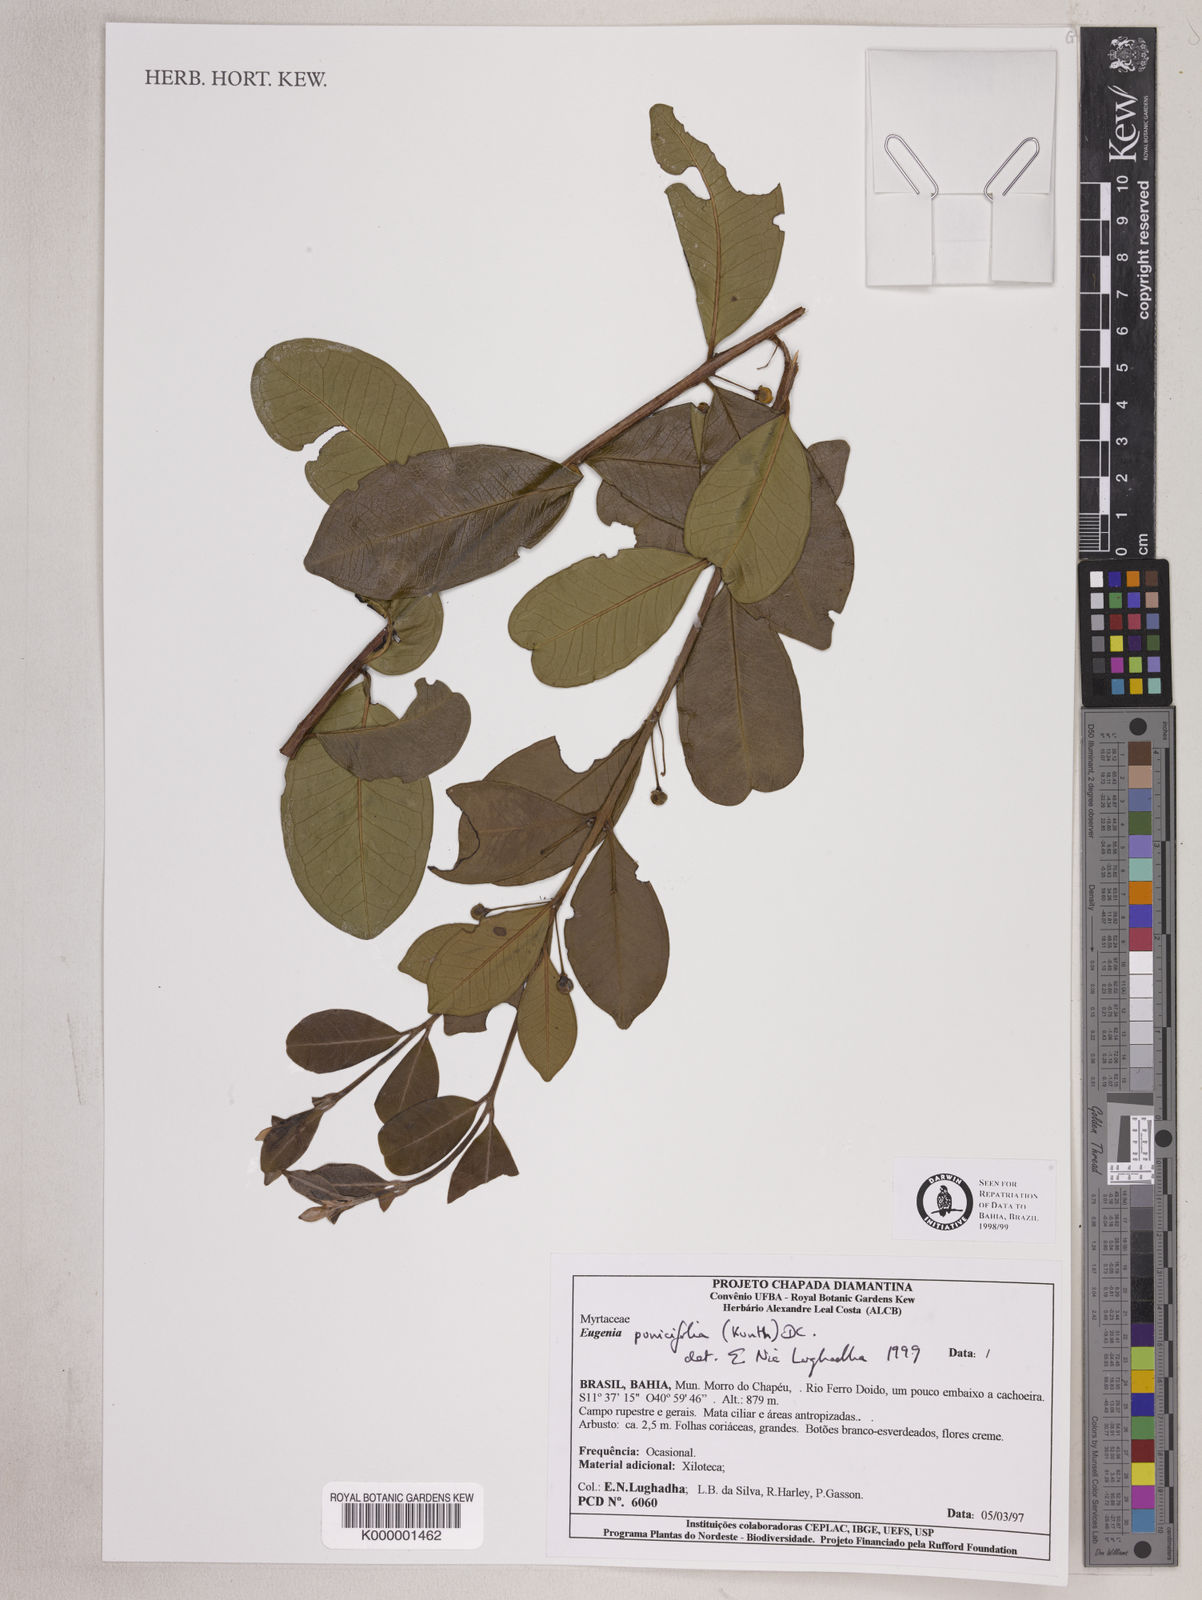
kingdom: Plantae
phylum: Tracheophyta
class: Magnoliopsida
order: Myrtales
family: Myrtaceae
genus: Eugenia
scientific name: Eugenia punicifolia
